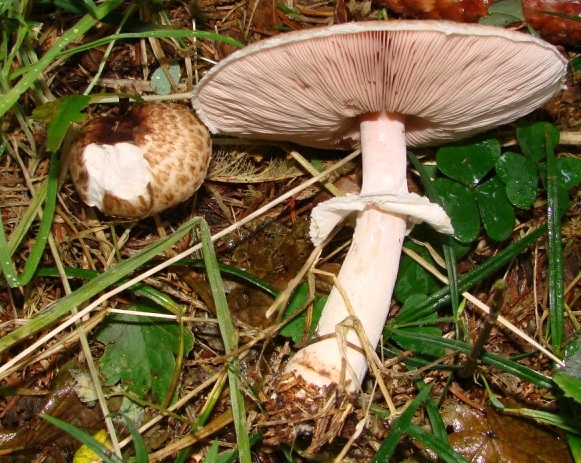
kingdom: Fungi
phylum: Basidiomycota
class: Agaricomycetes
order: Agaricales
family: Agaricaceae
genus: Agaricus
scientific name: Agaricus impudicus
